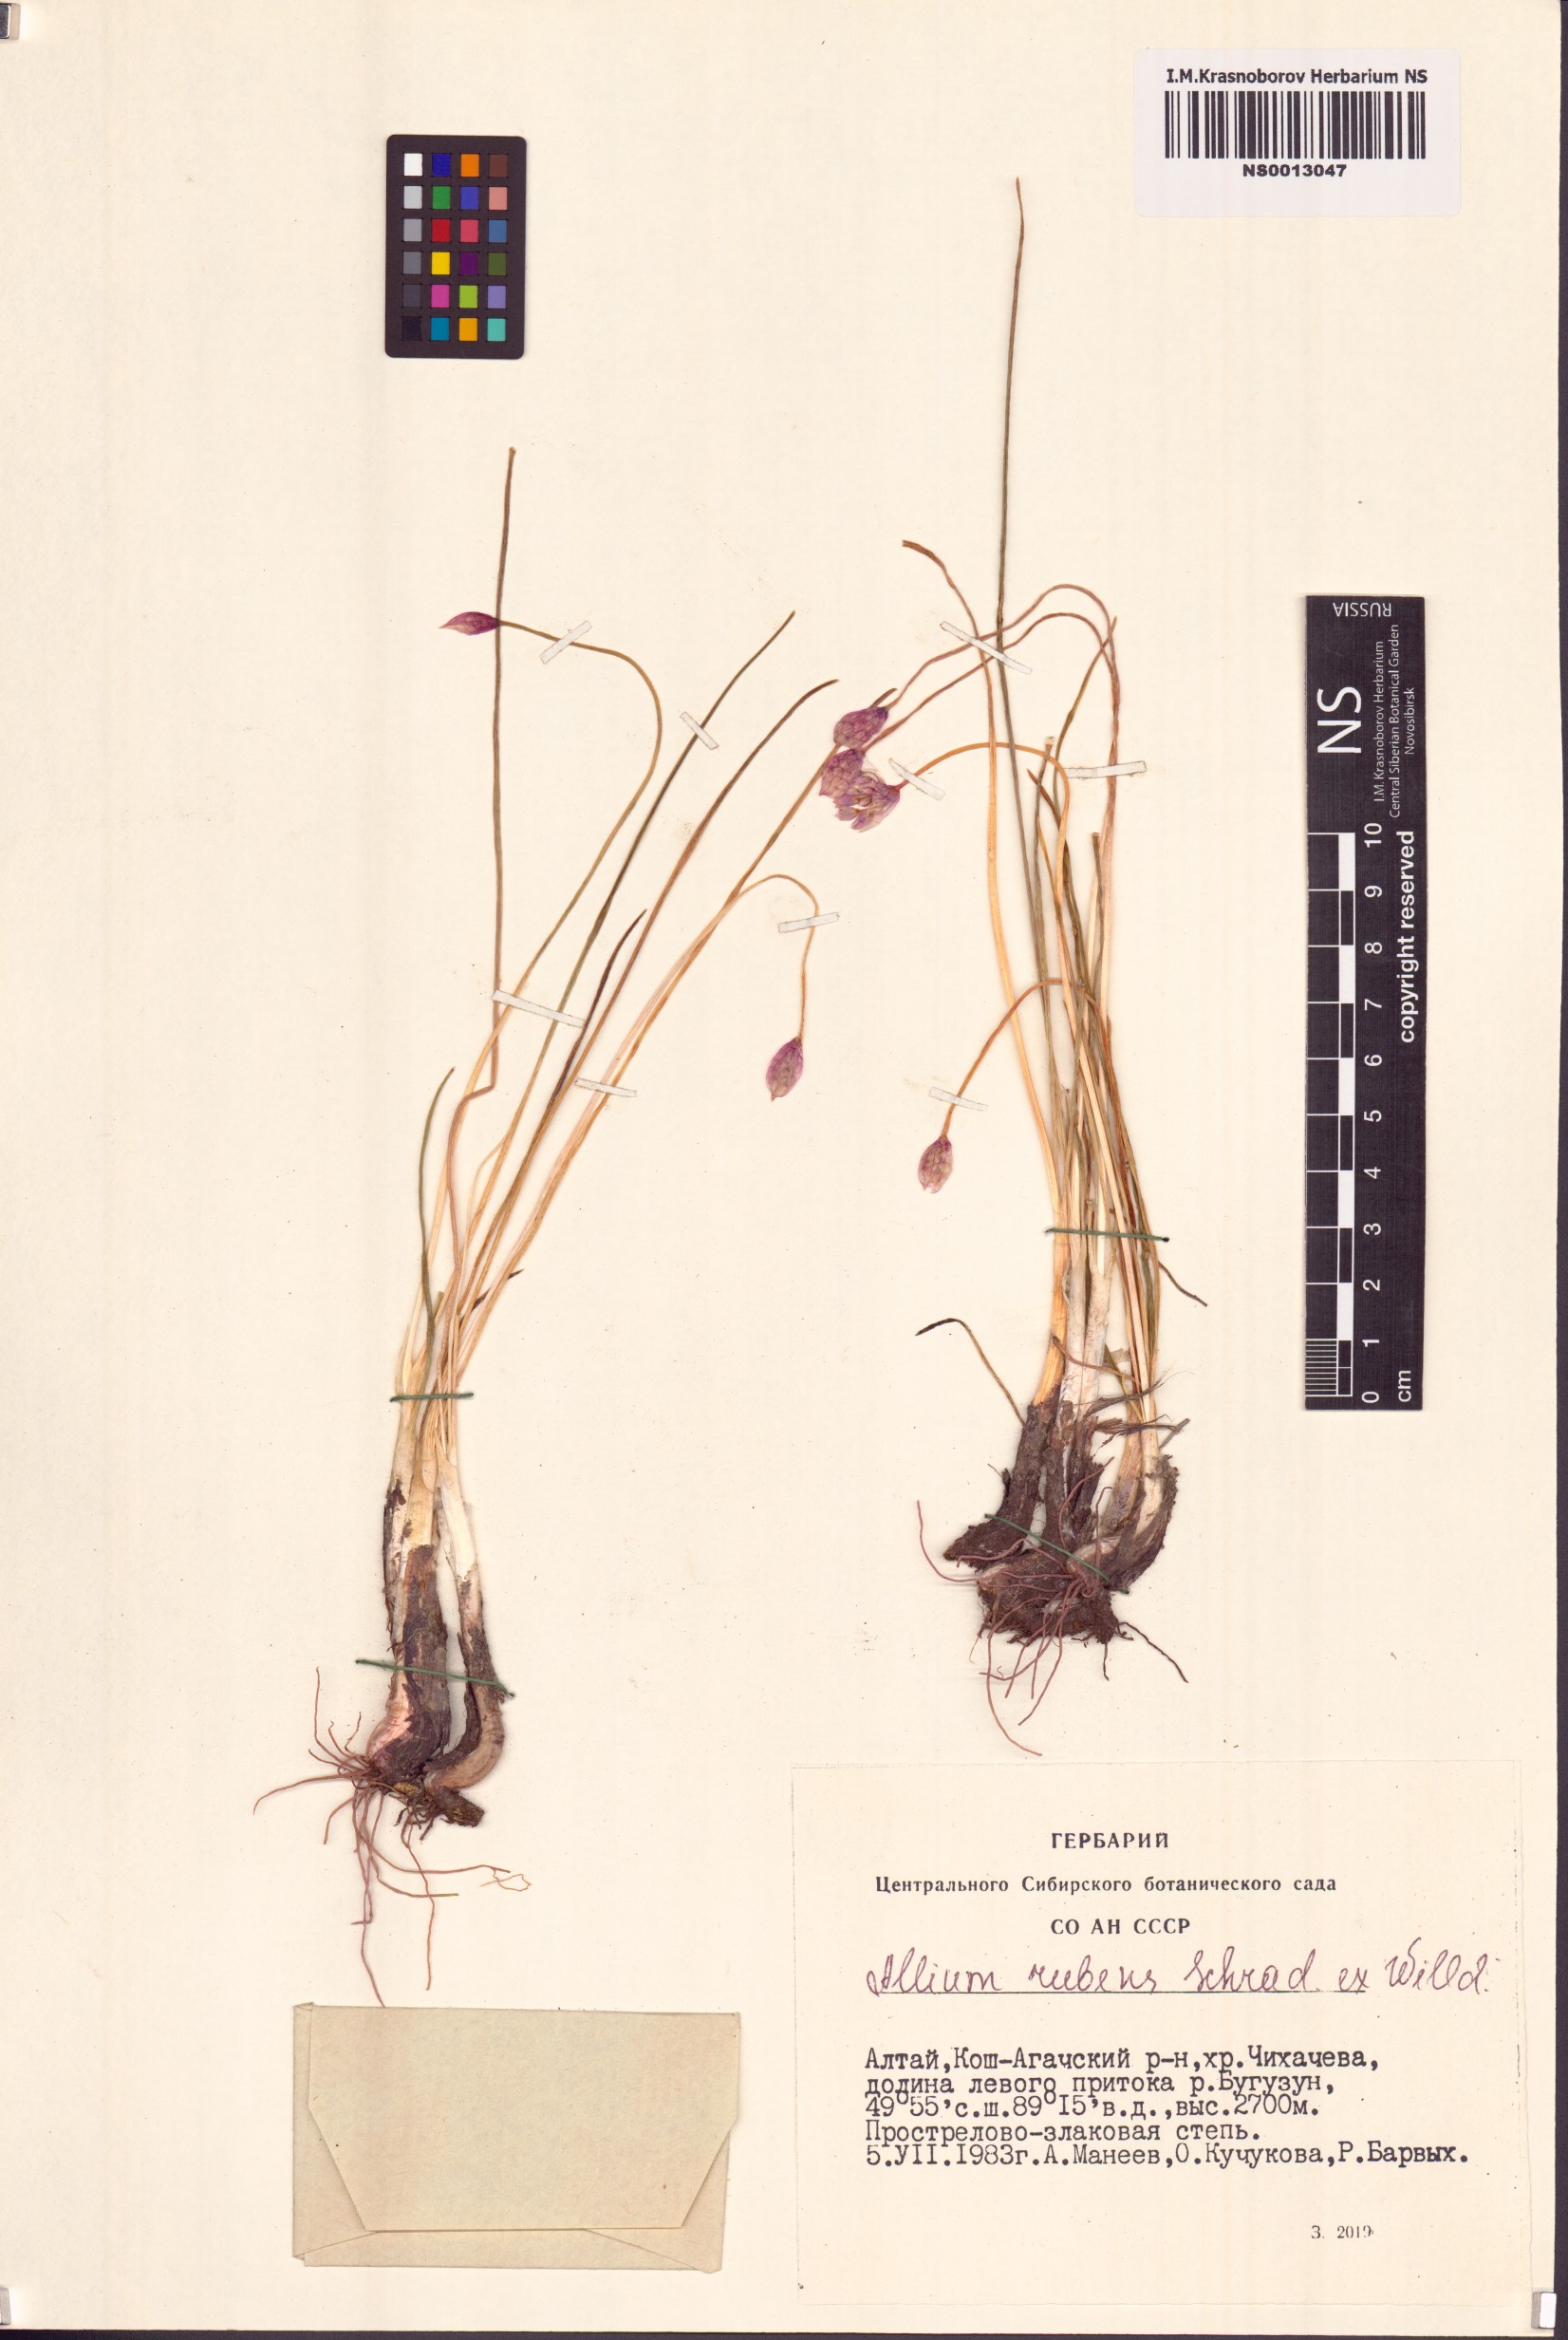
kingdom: Plantae
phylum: Tracheophyta
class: Liliopsida
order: Asparagales
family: Amaryllidaceae
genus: Allium
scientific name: Allium rubens
